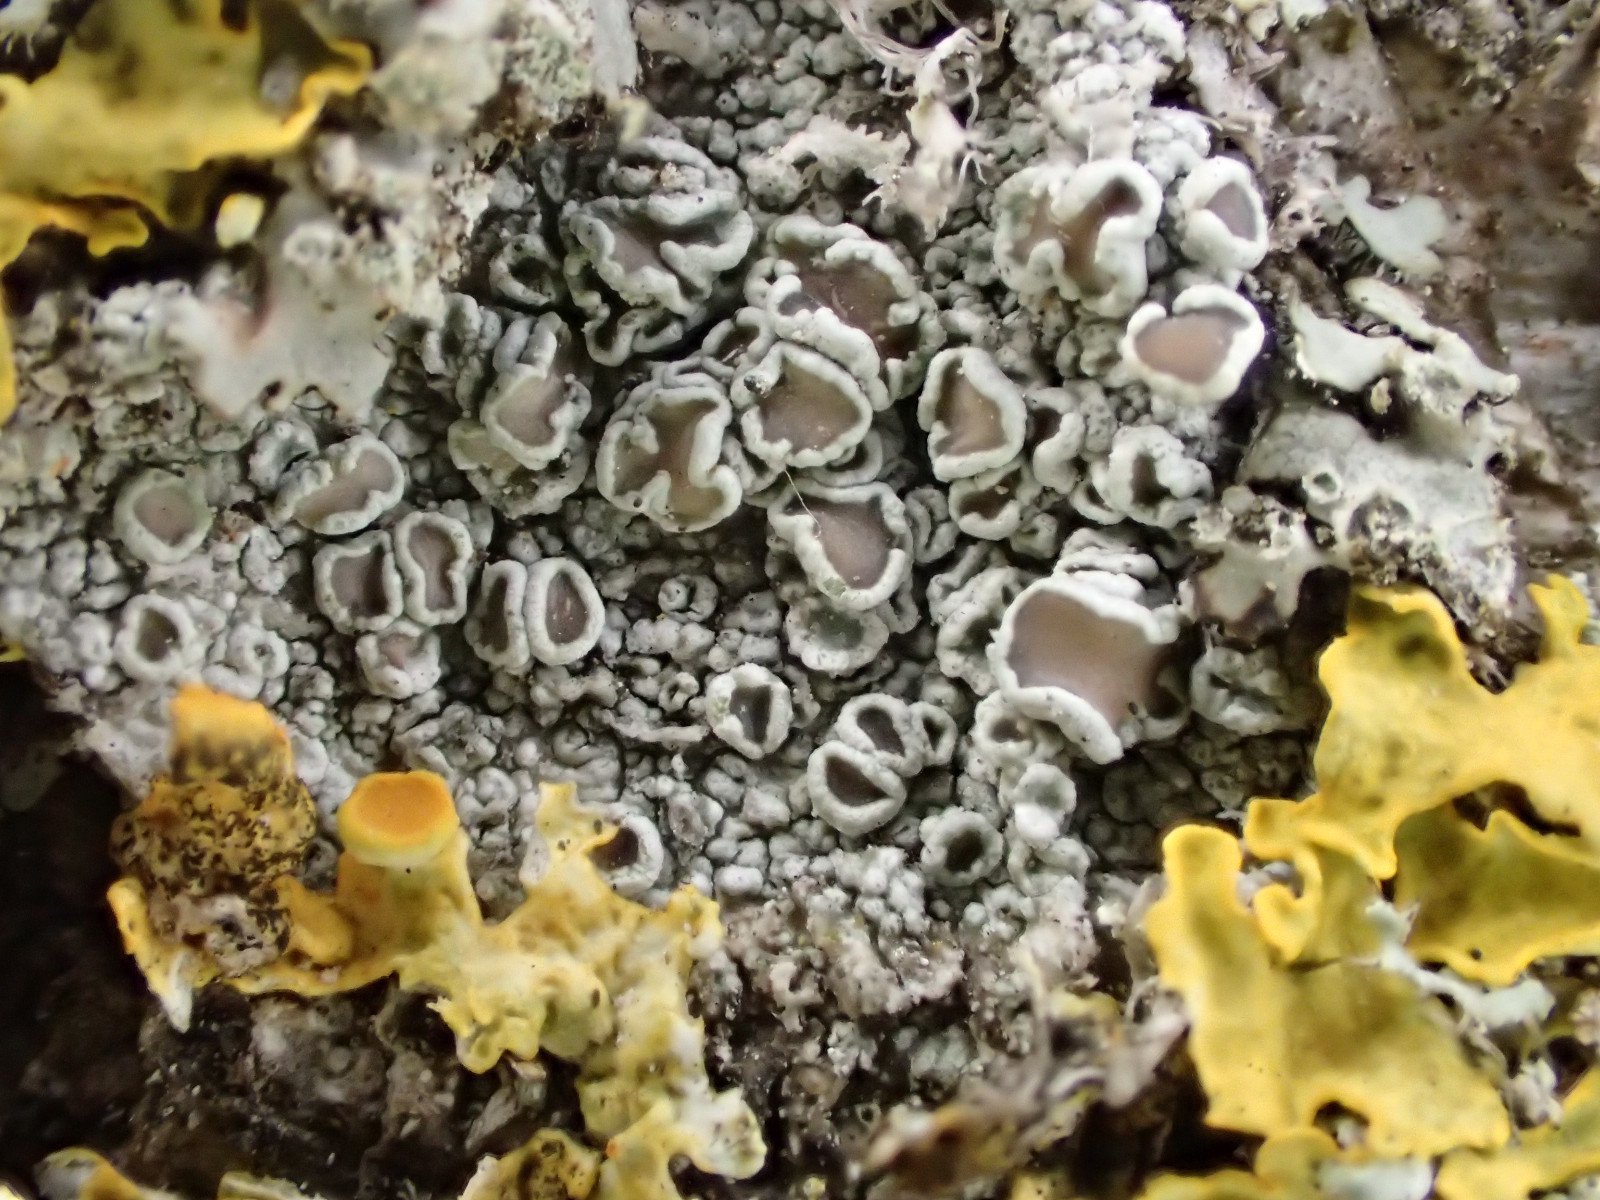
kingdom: Fungi
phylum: Ascomycota
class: Lecanoromycetes
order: Lecanorales
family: Lecanoraceae
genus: Lecanora
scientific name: Lecanora chlarotera
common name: brun kantskivelav
